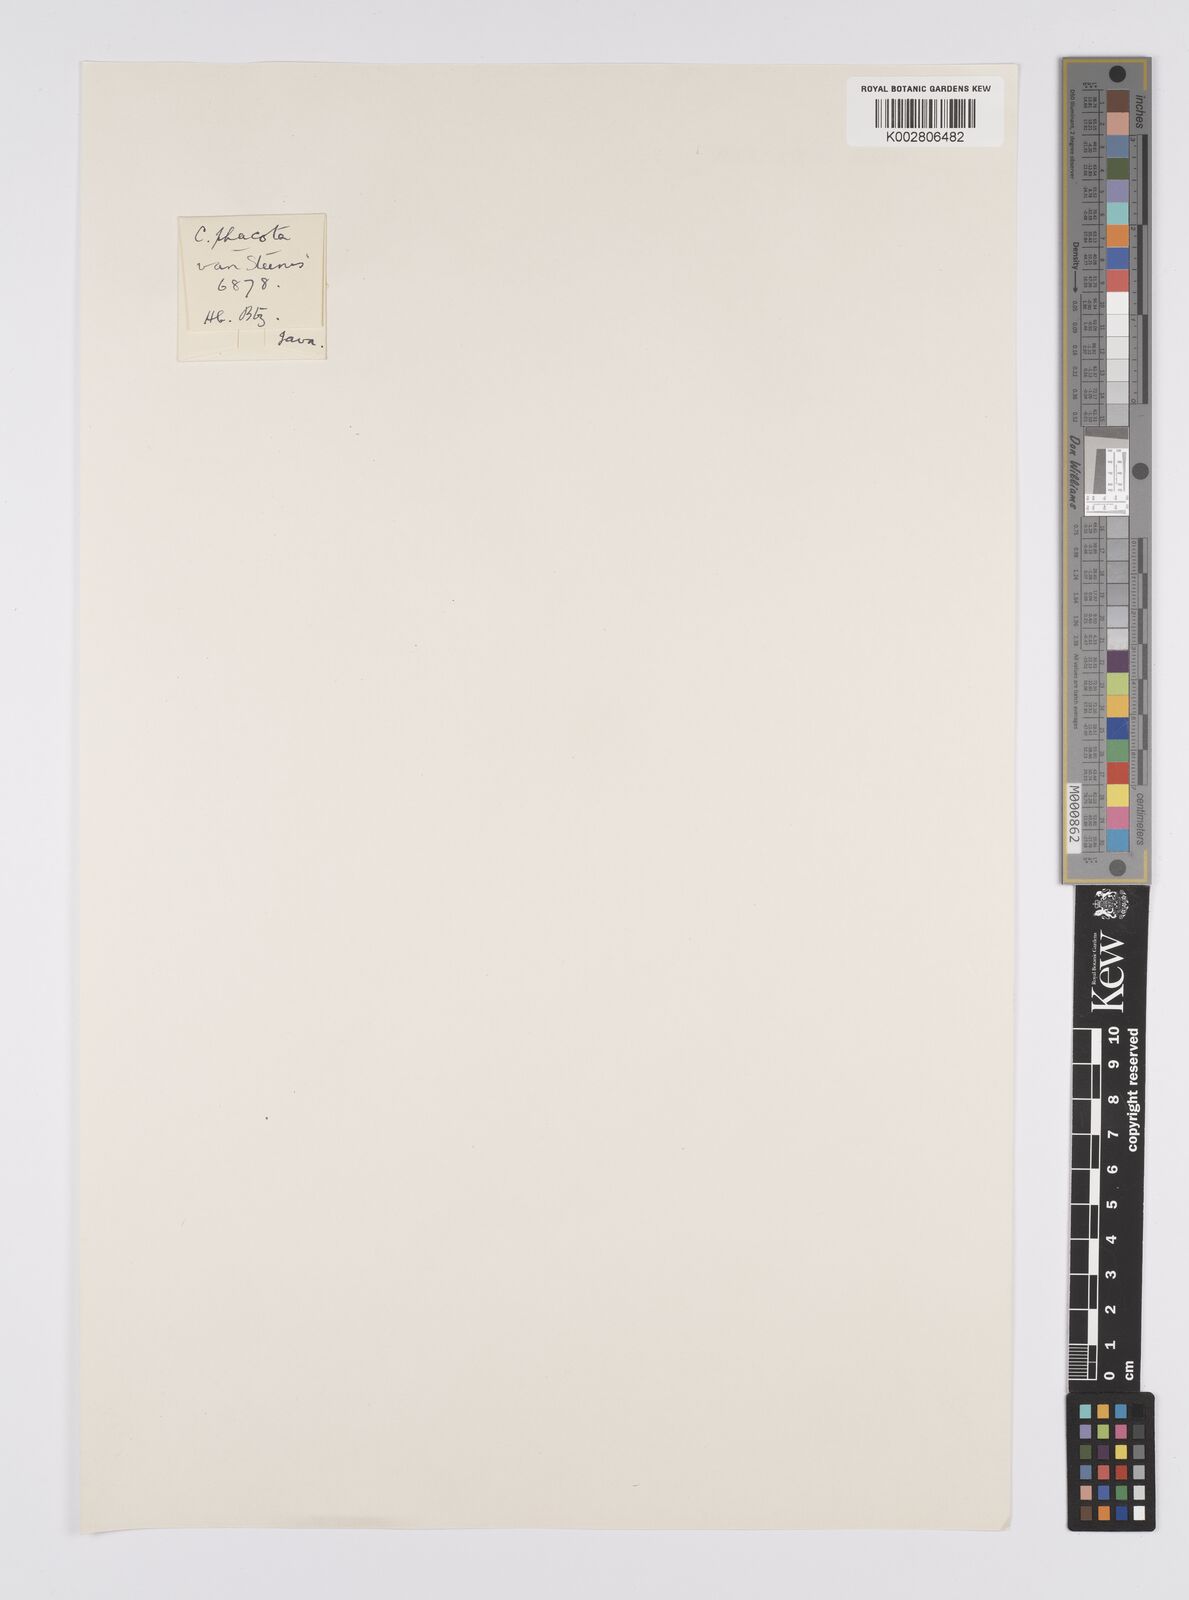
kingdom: Plantae
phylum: Tracheophyta
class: Liliopsida
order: Poales
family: Cyperaceae
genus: Carex
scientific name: Carex phacota
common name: Lakeshore sedge
